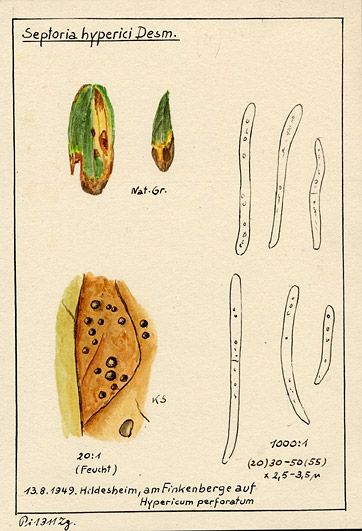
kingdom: Fungi
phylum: Ascomycota
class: Dothideomycetes
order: Mycosphaerellales
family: Mycosphaerellaceae
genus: Sphaerulina
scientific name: Sphaerulina hyperici
